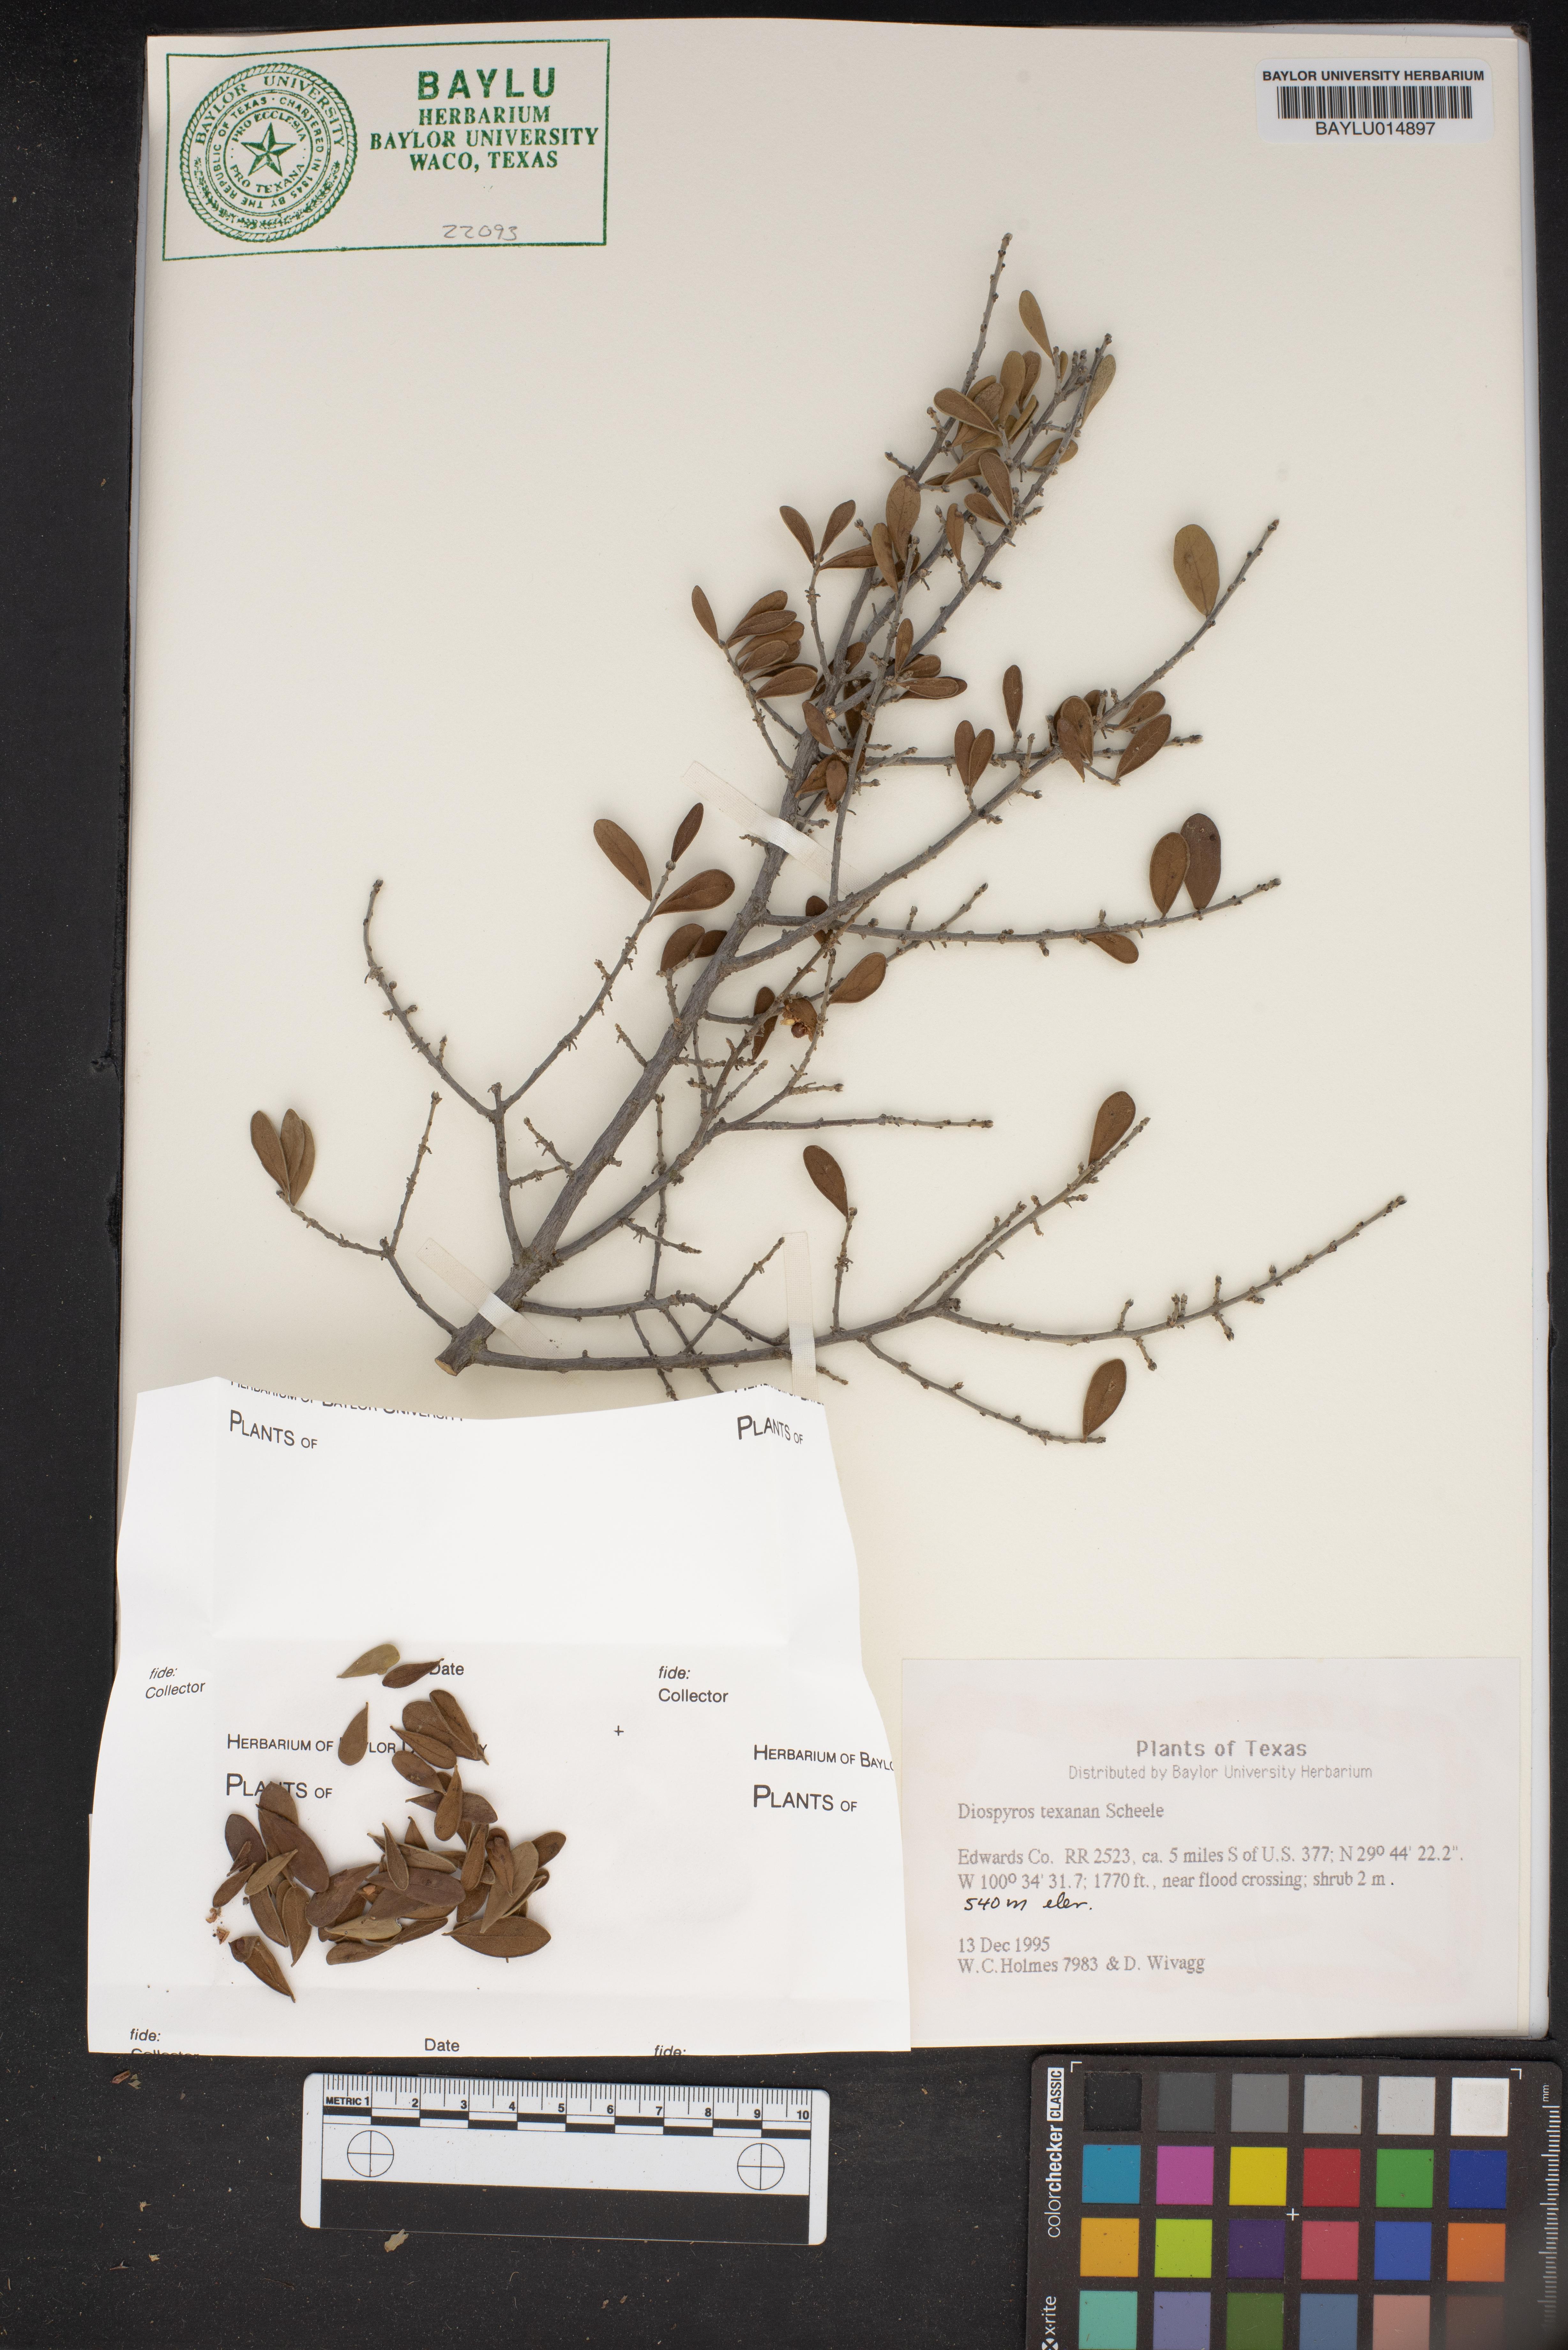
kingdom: Plantae
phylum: Tracheophyta
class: Magnoliopsida
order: Ericales
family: Ebenaceae
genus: Diospyros
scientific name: Diospyros texana
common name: Texas persimmon
